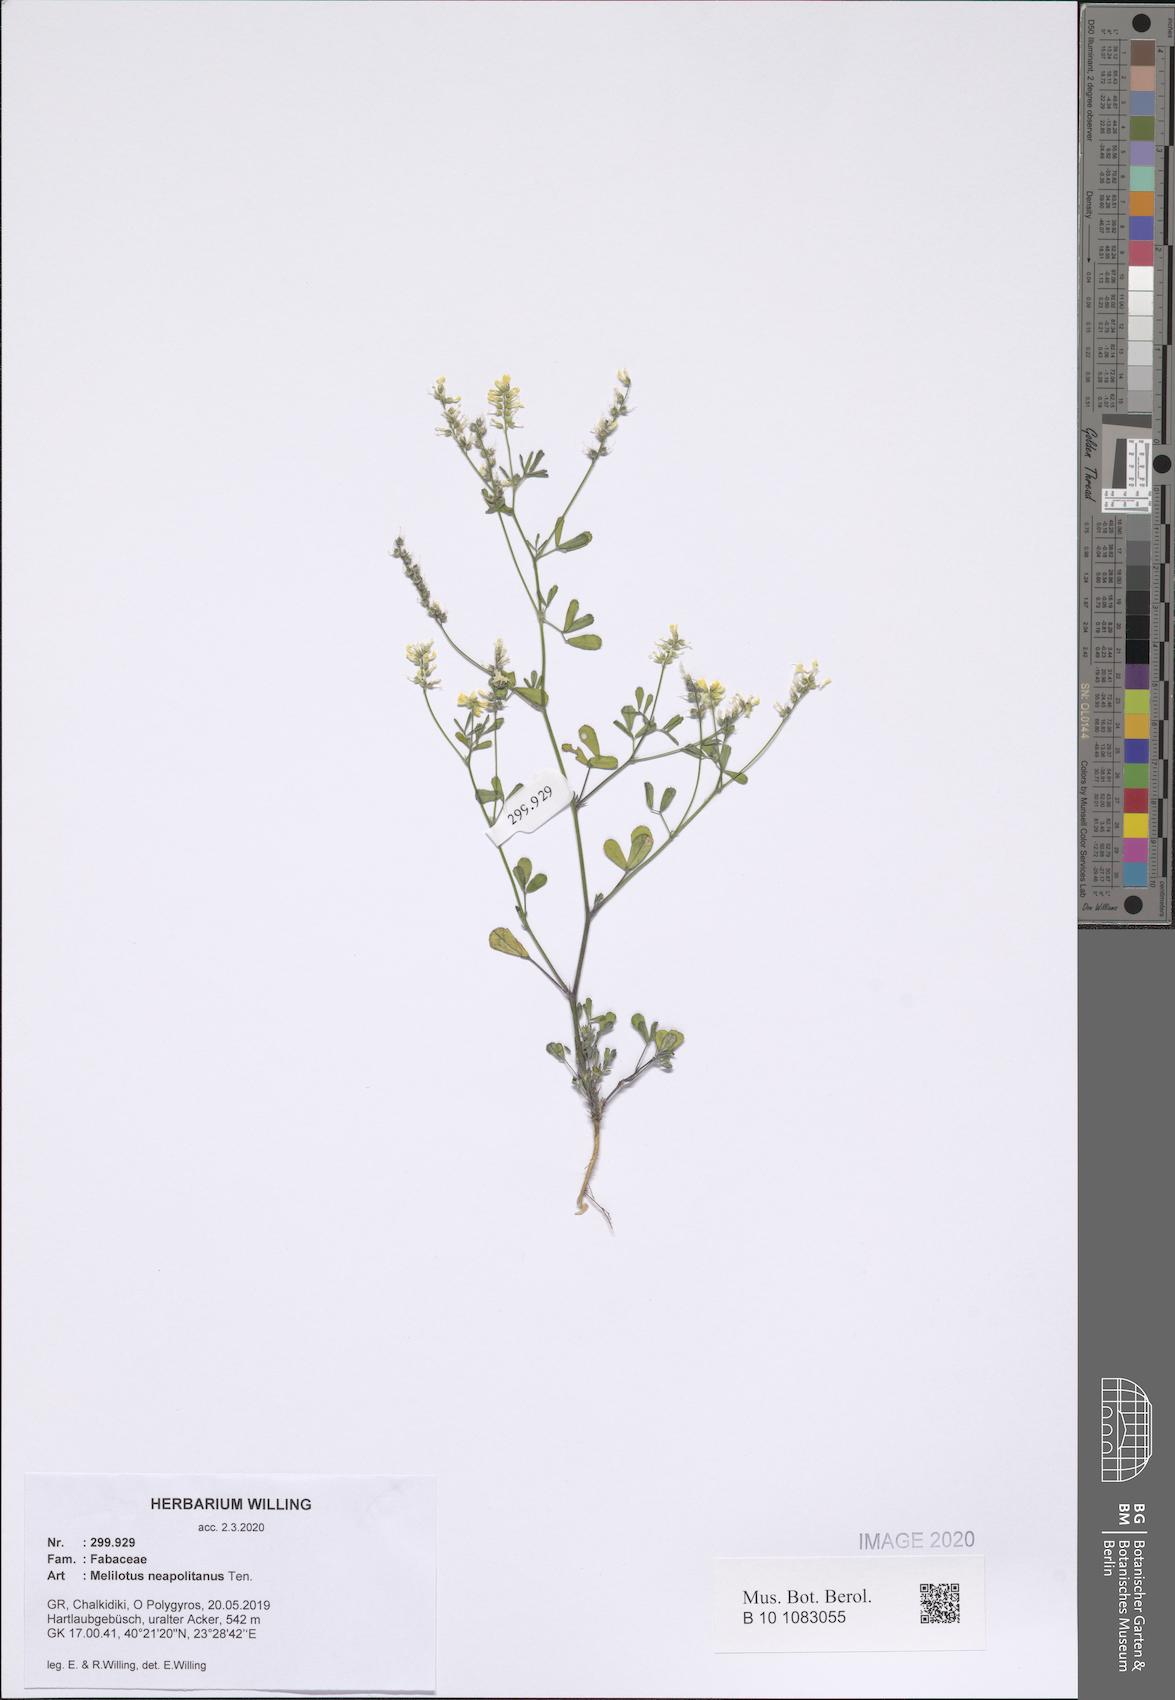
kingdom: Plantae
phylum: Tracheophyta
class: Magnoliopsida
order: Fabales
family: Fabaceae
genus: Melilotus
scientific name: Melilotus neapolitanus
